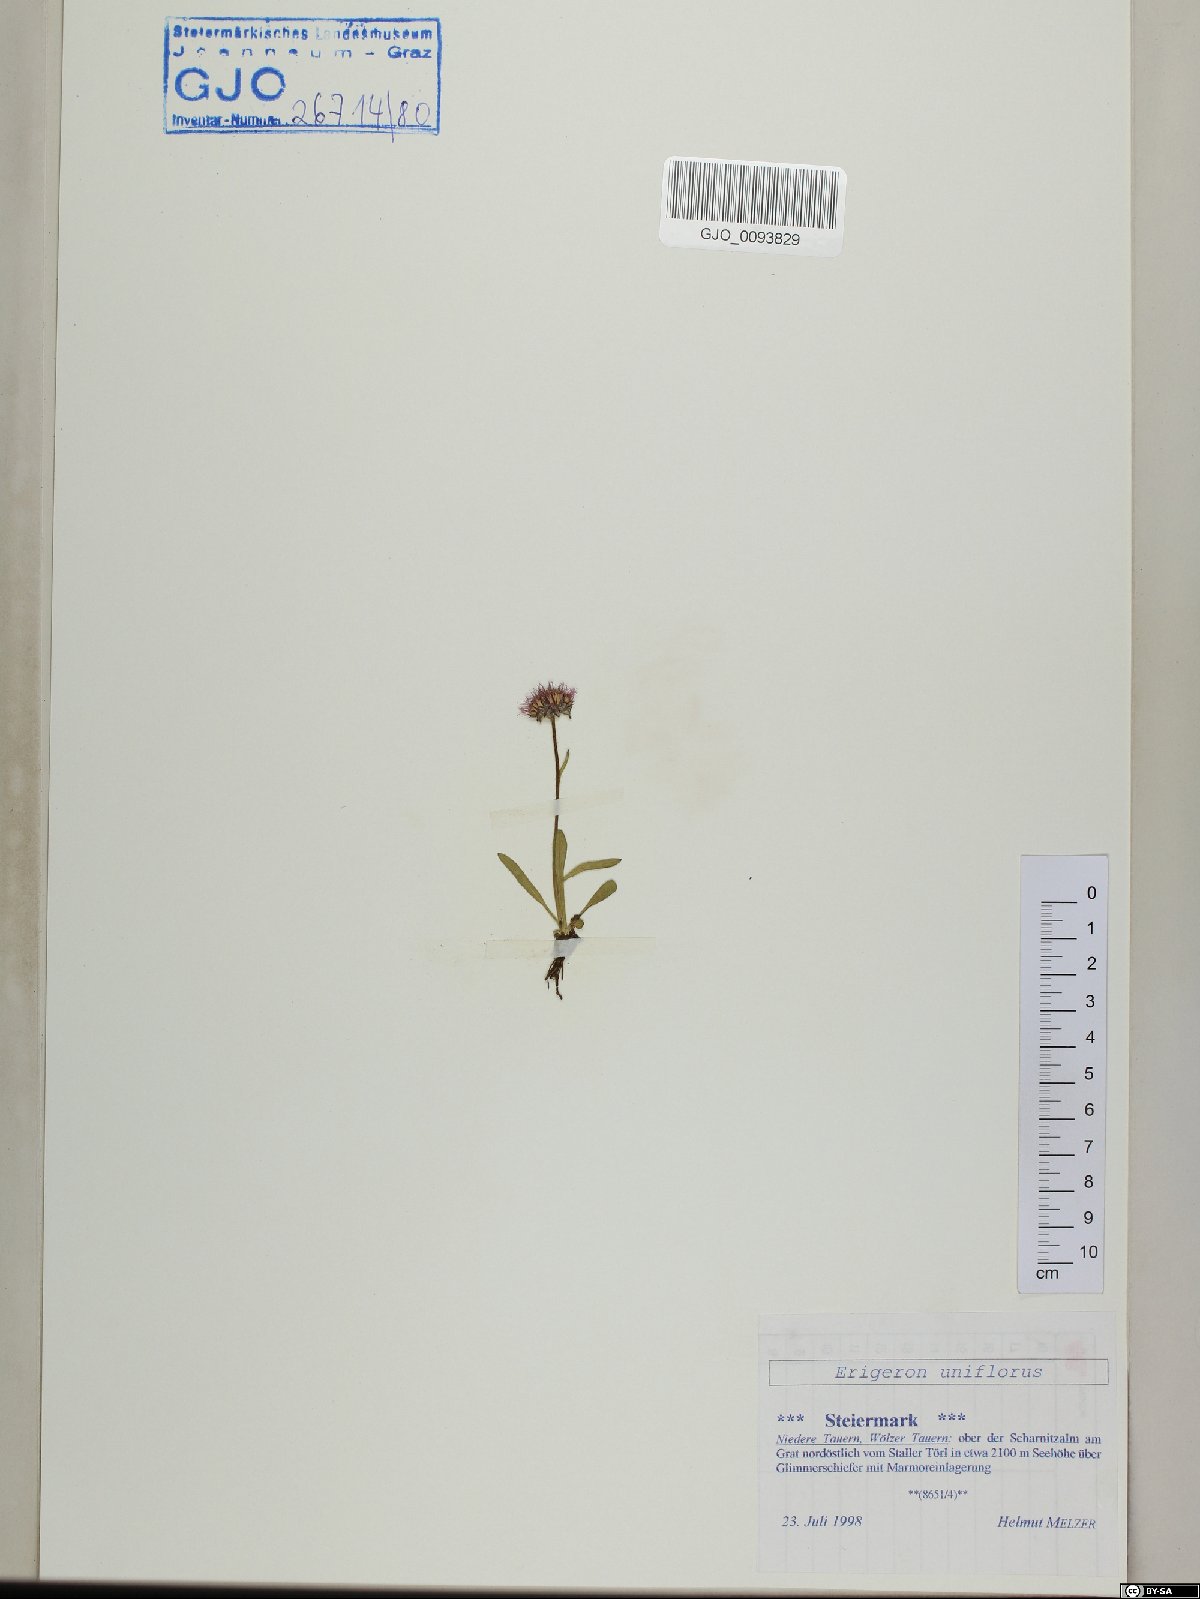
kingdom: Plantae
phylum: Tracheophyta
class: Magnoliopsida
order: Asterales
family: Asteraceae
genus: Erigeron
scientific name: Erigeron uniflorus
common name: Northern daisy
